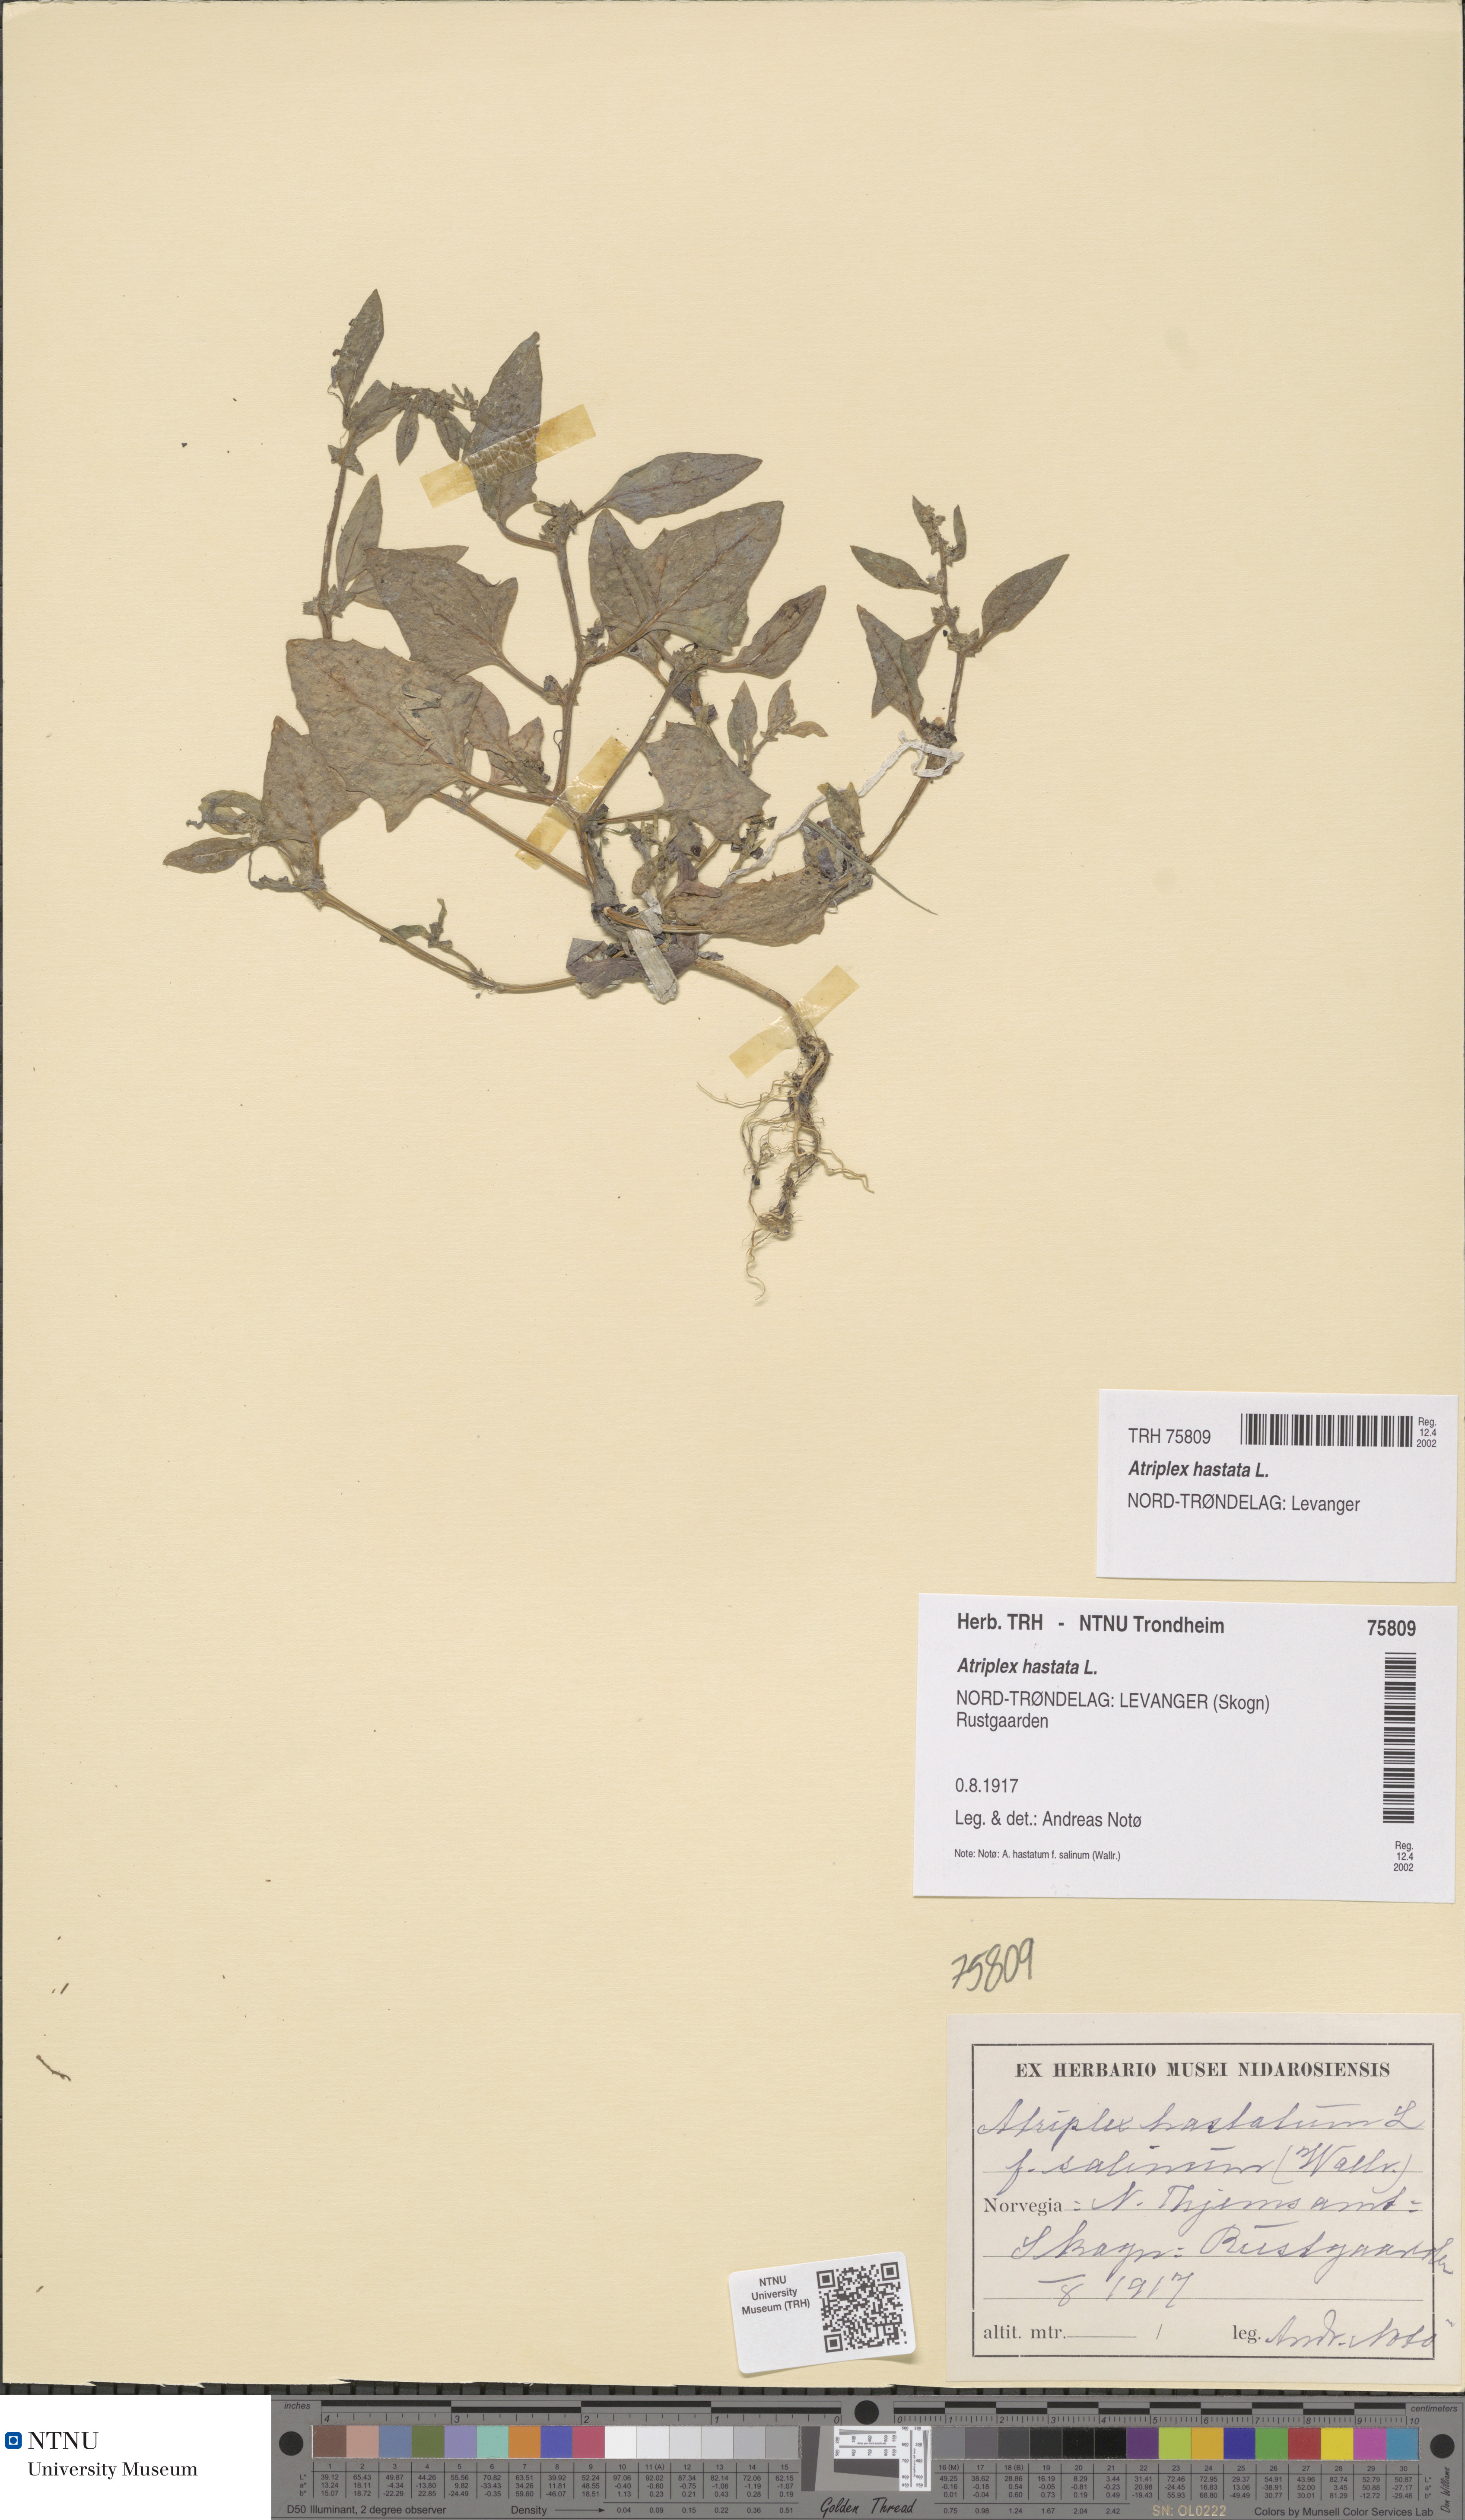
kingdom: Plantae
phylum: Tracheophyta
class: Magnoliopsida
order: Caryophyllales
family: Amaranthaceae
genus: Atriplex
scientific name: Atriplex prostrata
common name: Spear-leaved orache
